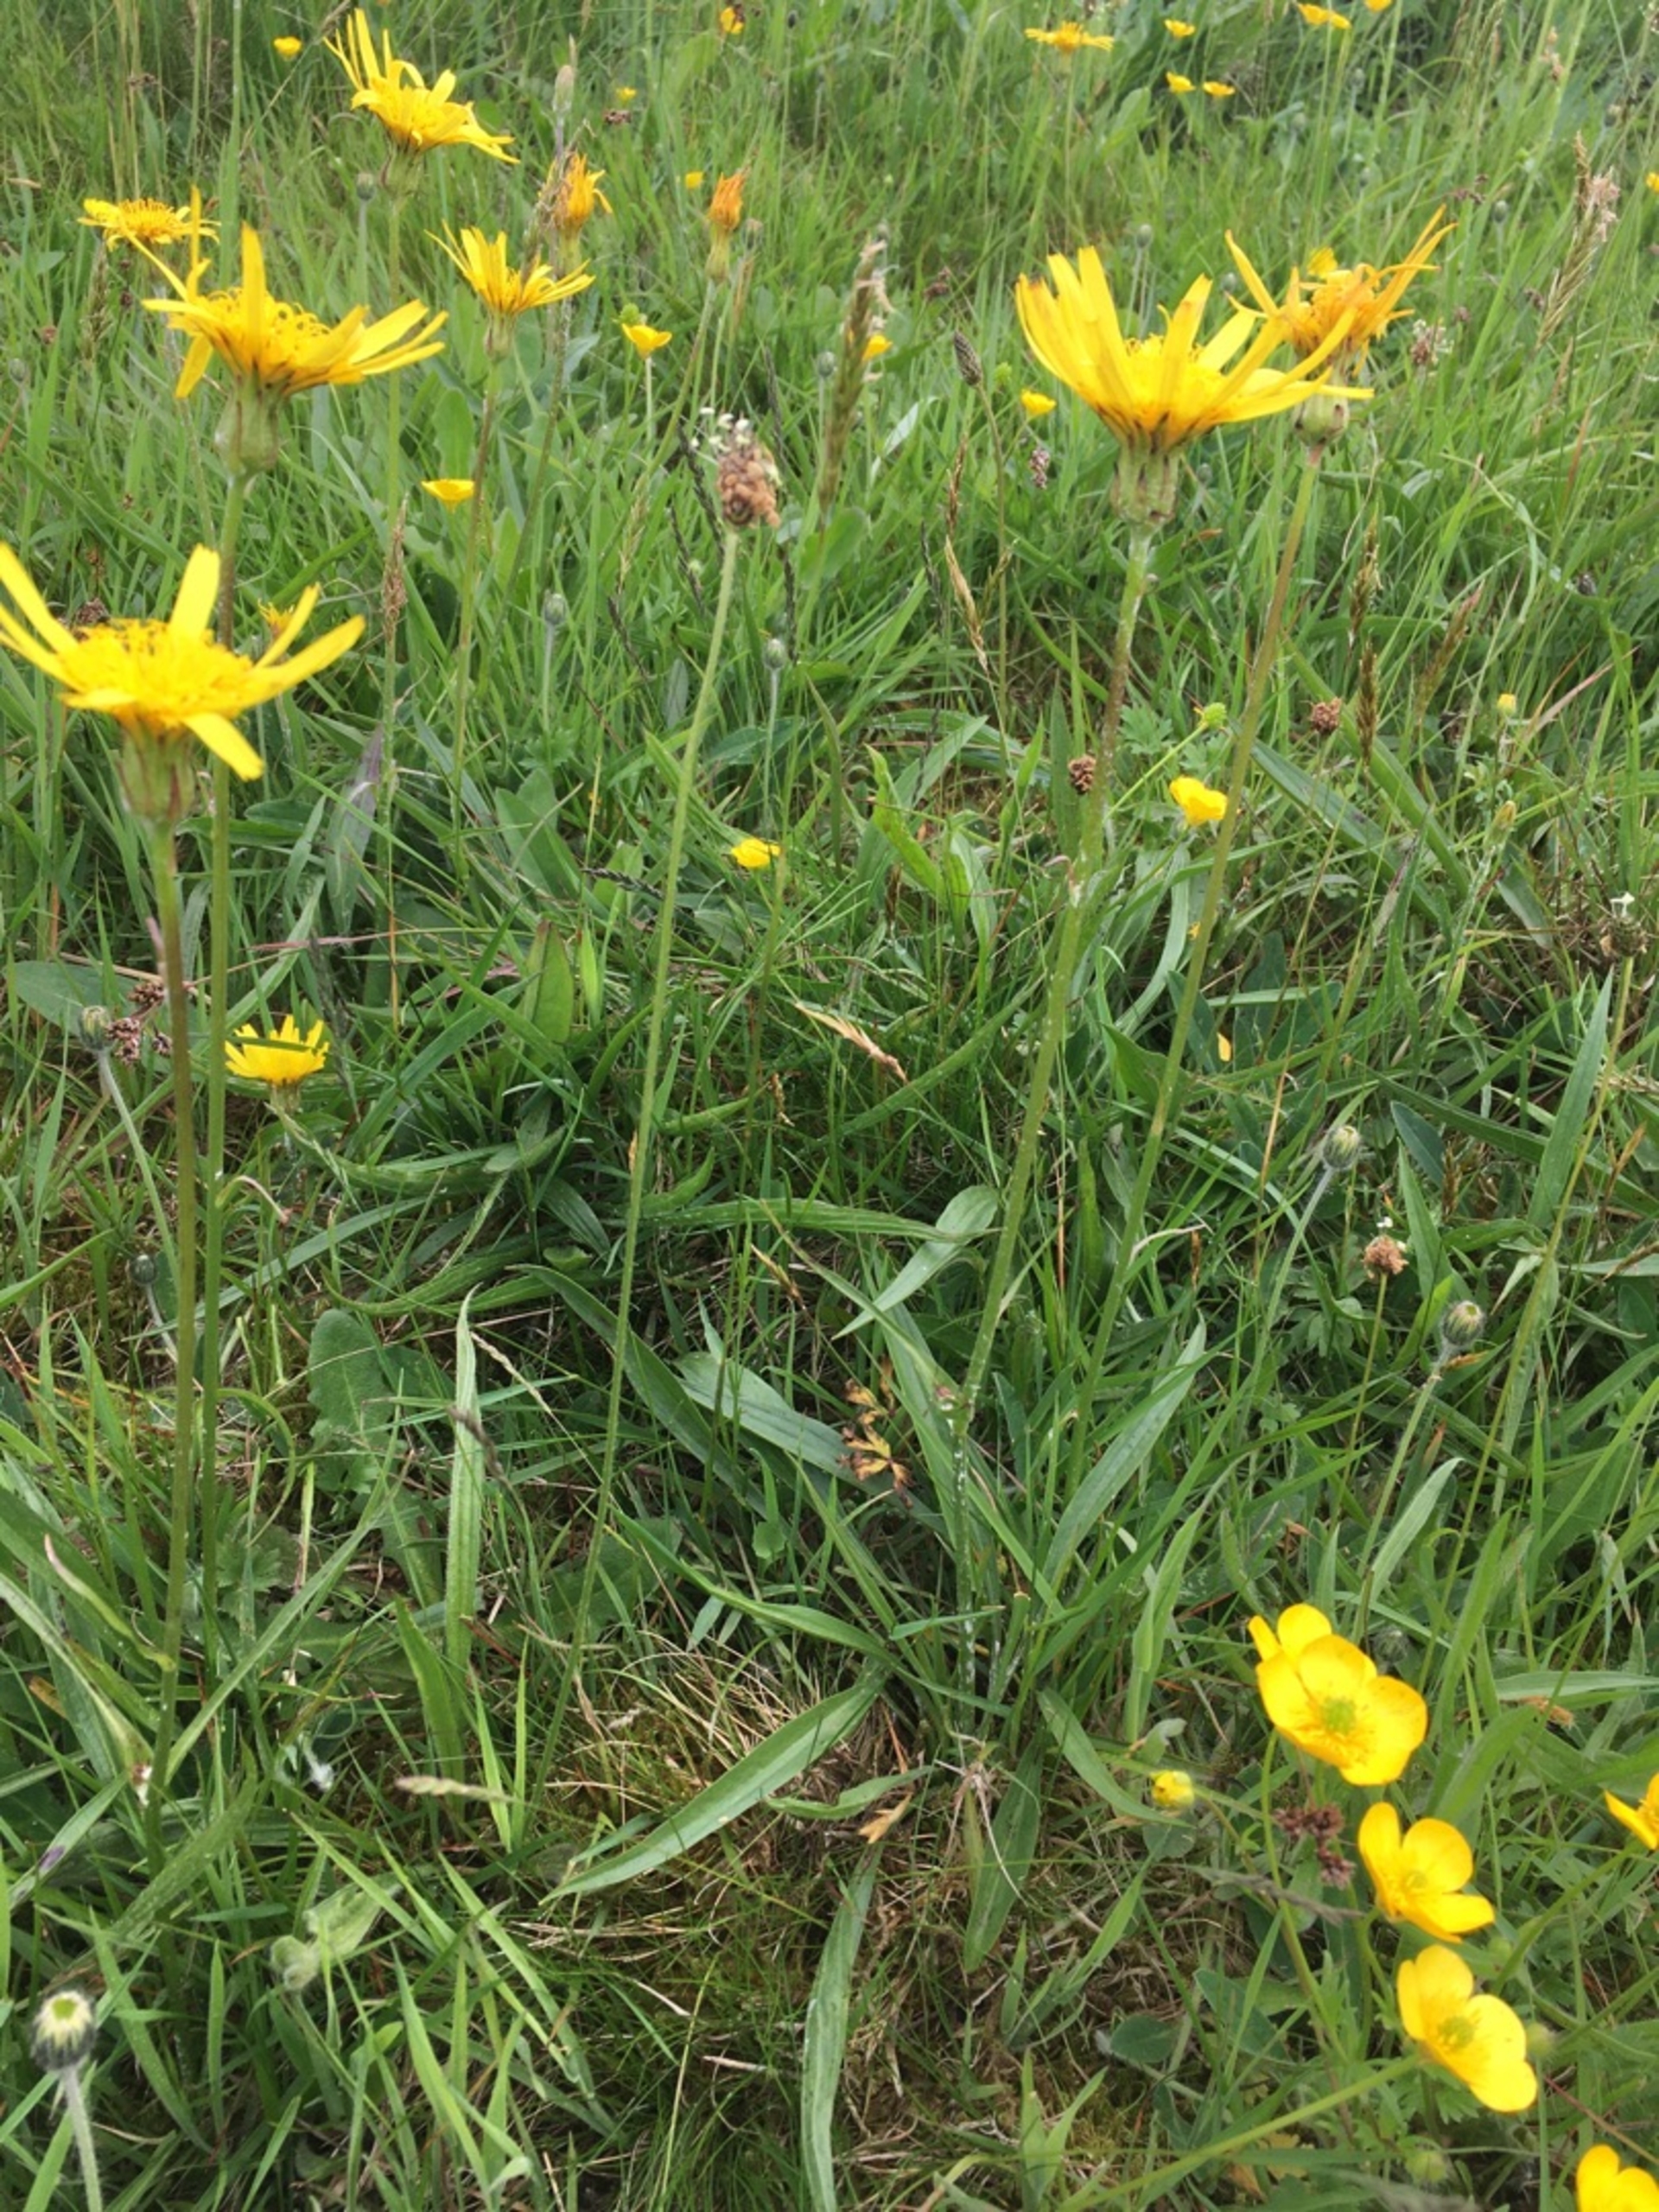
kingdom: Plantae
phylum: Tracheophyta
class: Magnoliopsida
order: Asterales
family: Asteraceae
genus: Scorzonera
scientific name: Scorzonera humilis
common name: Lav skorsoner
